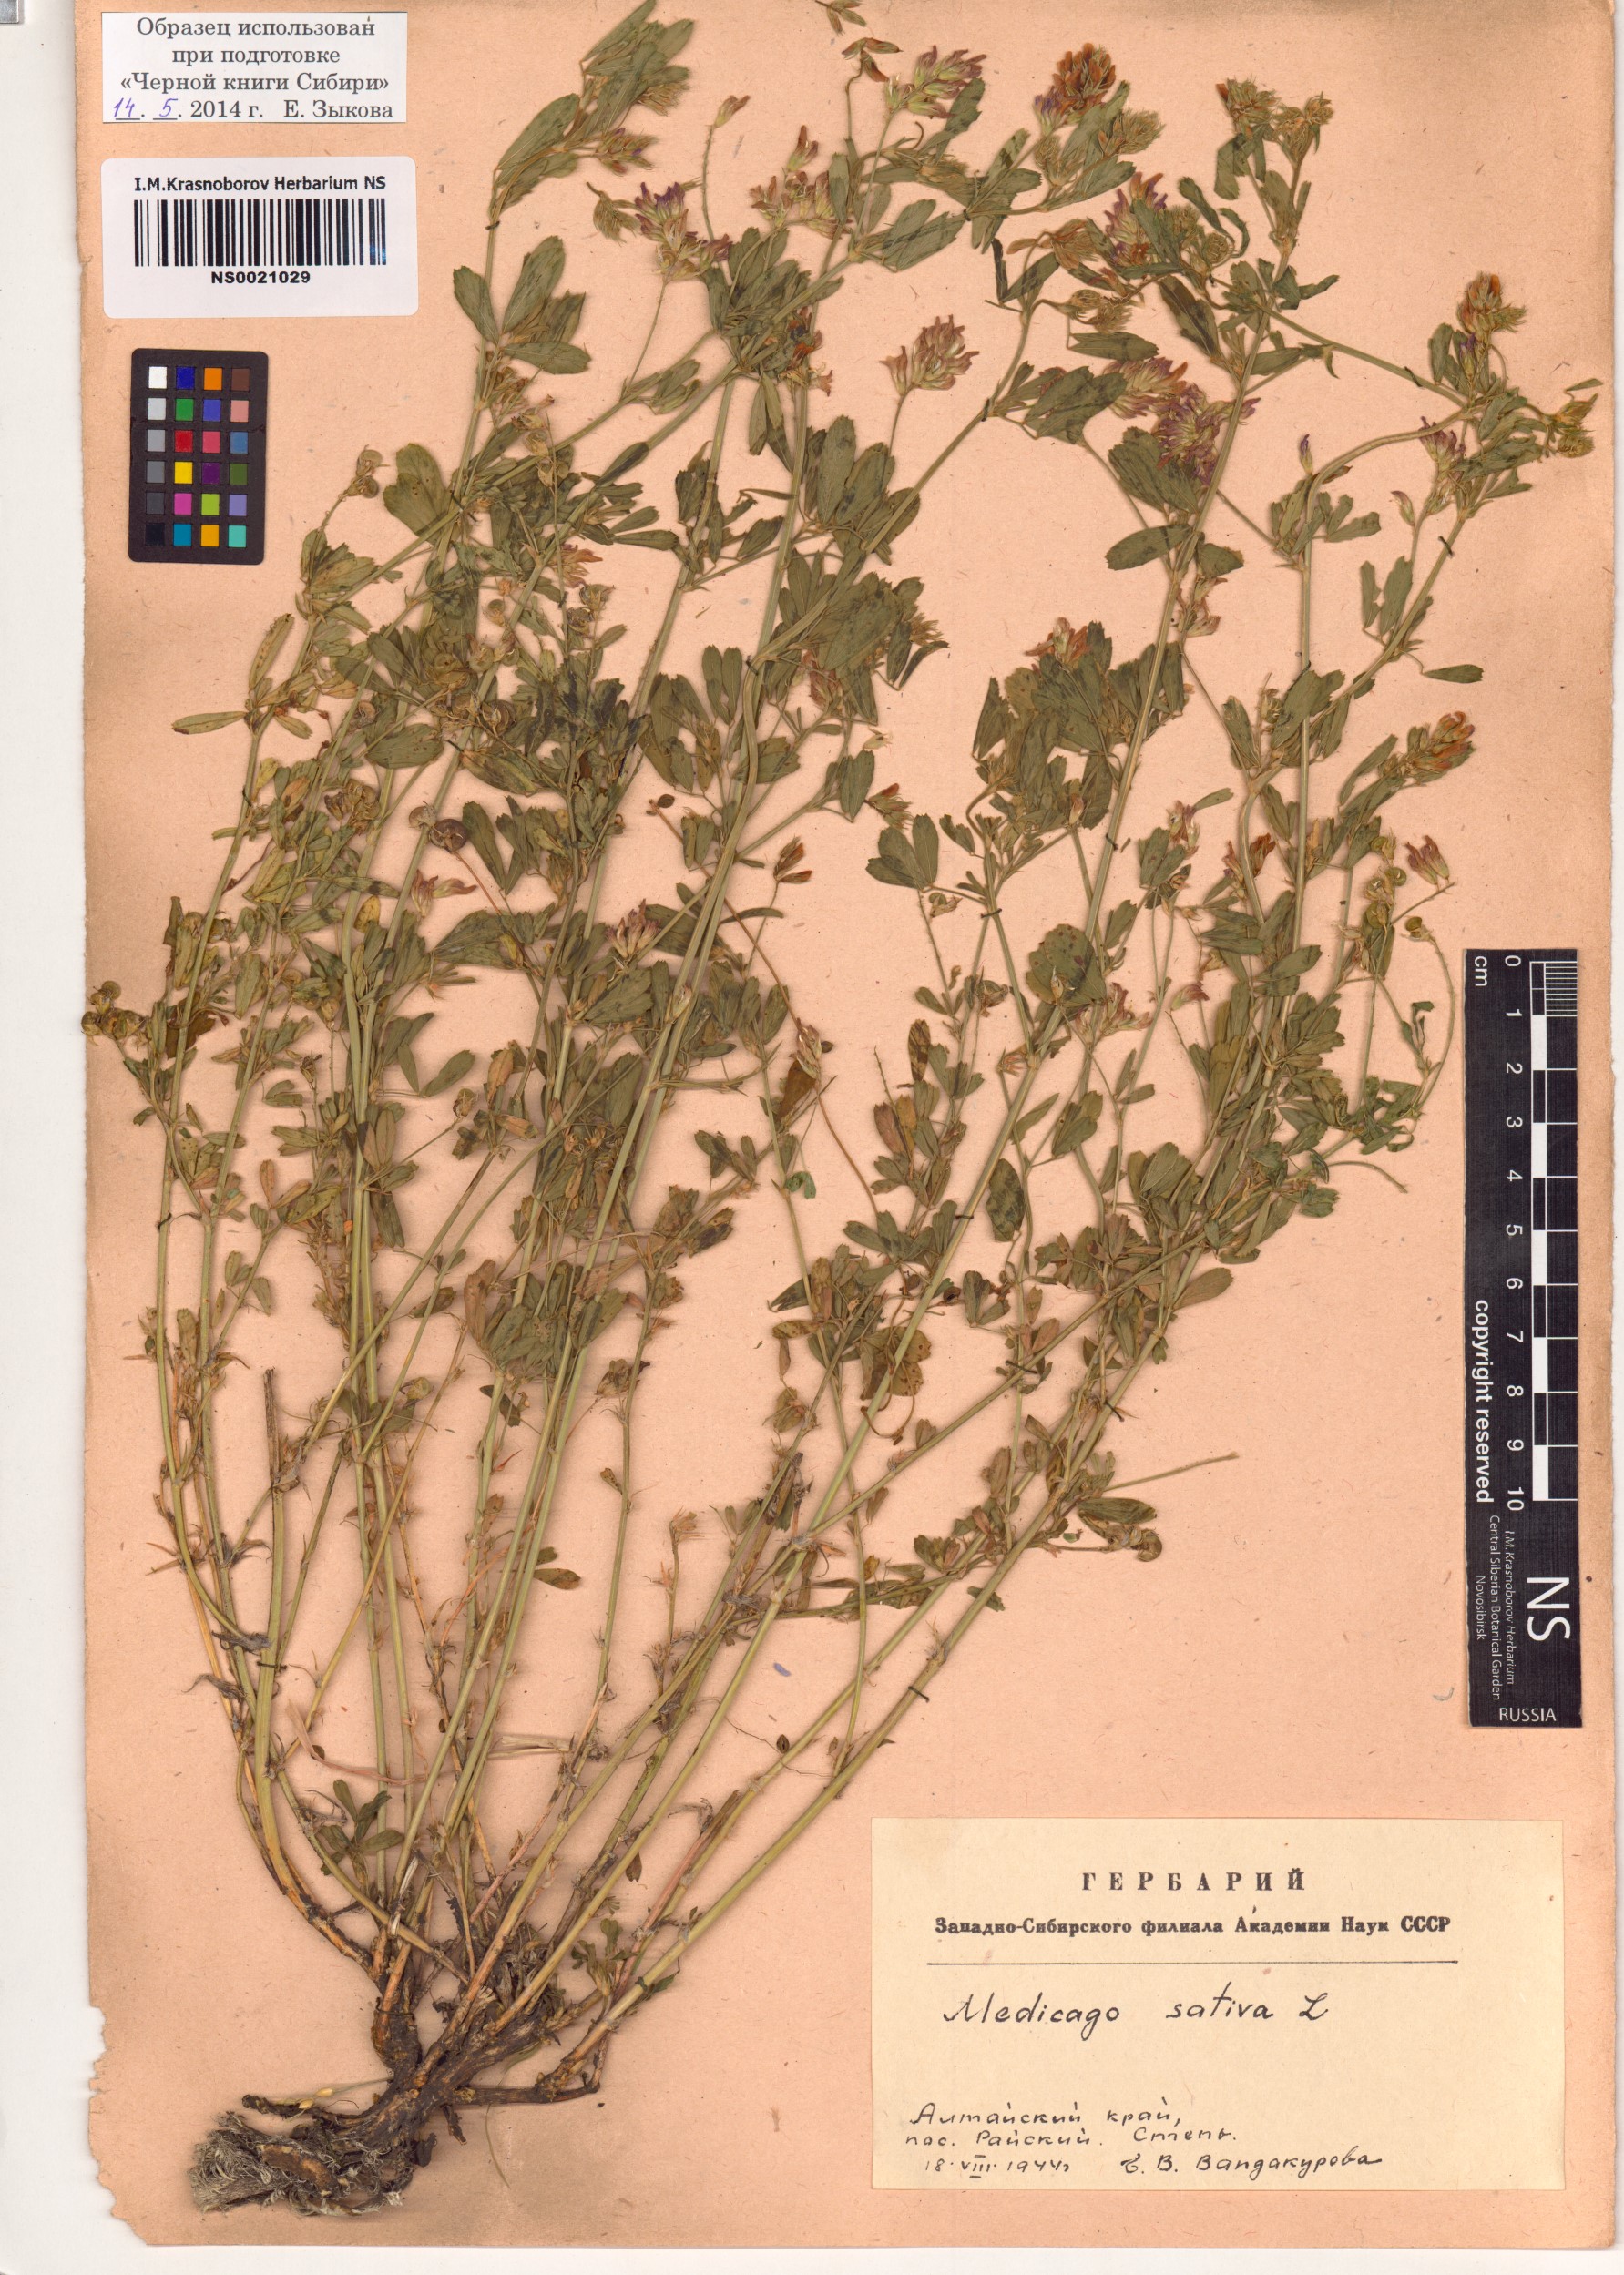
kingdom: Plantae
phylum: Tracheophyta
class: Magnoliopsida
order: Fabales
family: Fabaceae
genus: Medicago
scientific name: Medicago sativa
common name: Alfalfa
